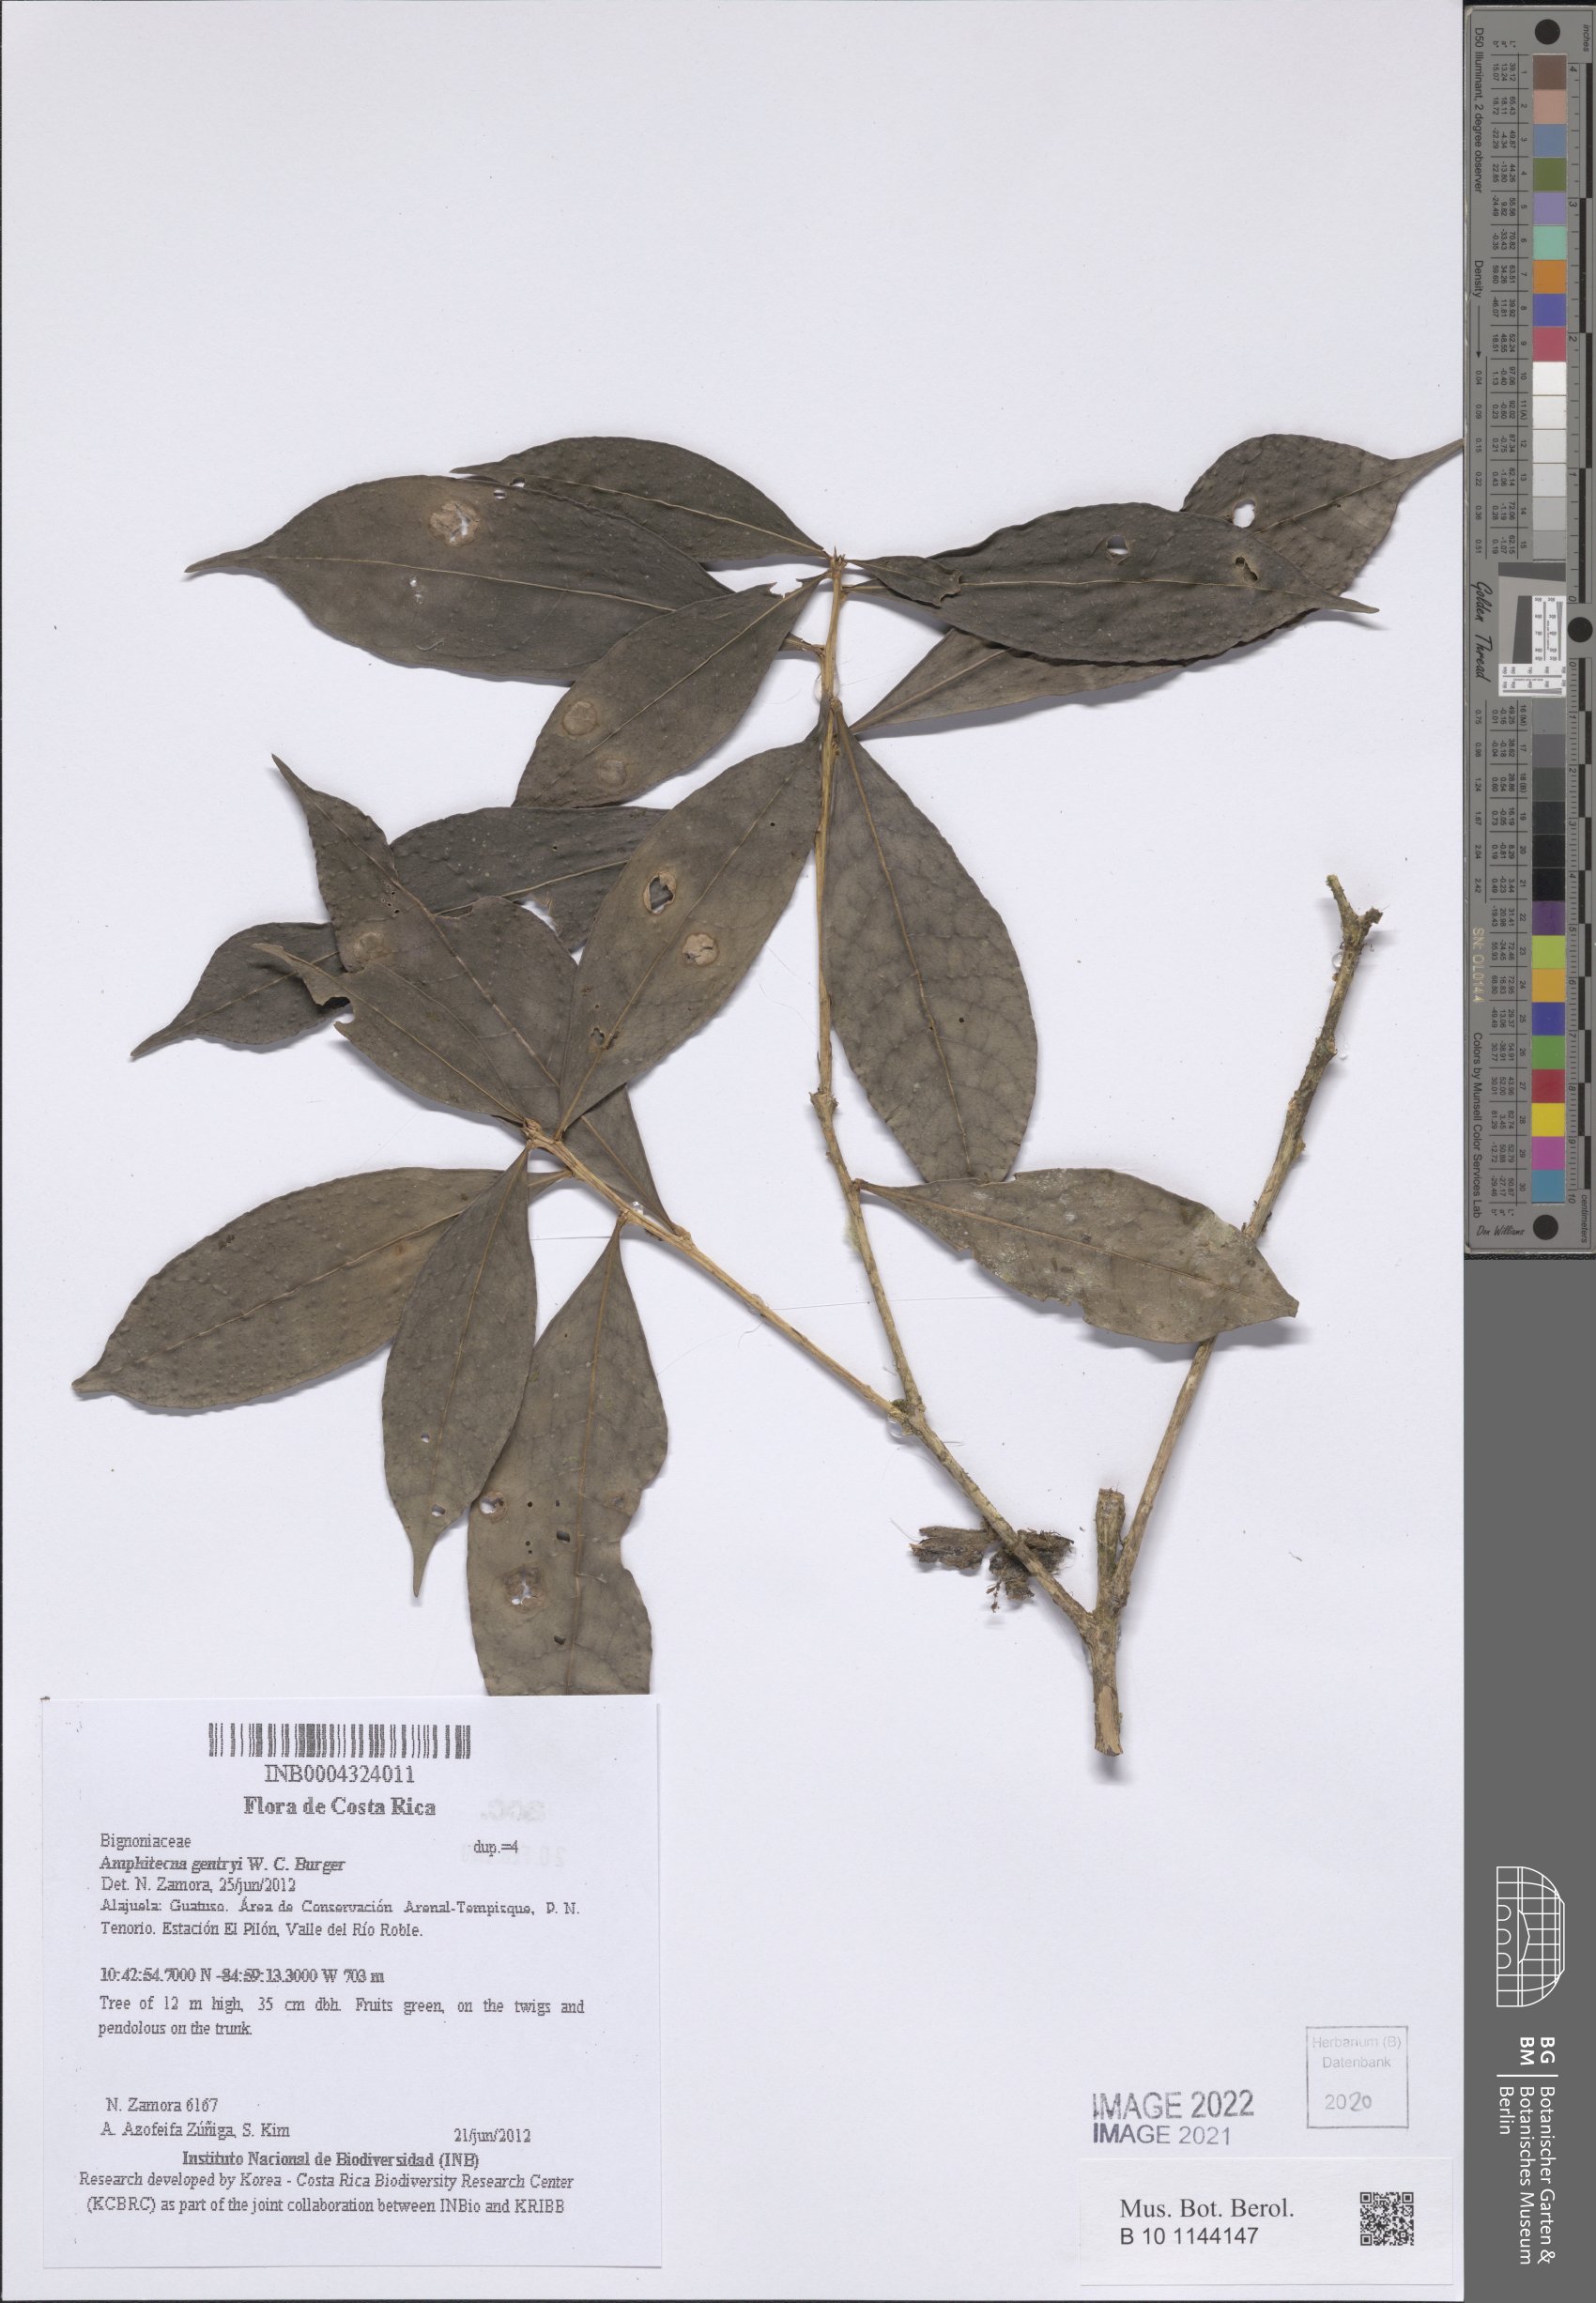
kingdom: Plantae
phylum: Tracheophyta
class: Magnoliopsida
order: Lamiales
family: Bignoniaceae
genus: Amphitecna
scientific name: Amphitecna gentryi
